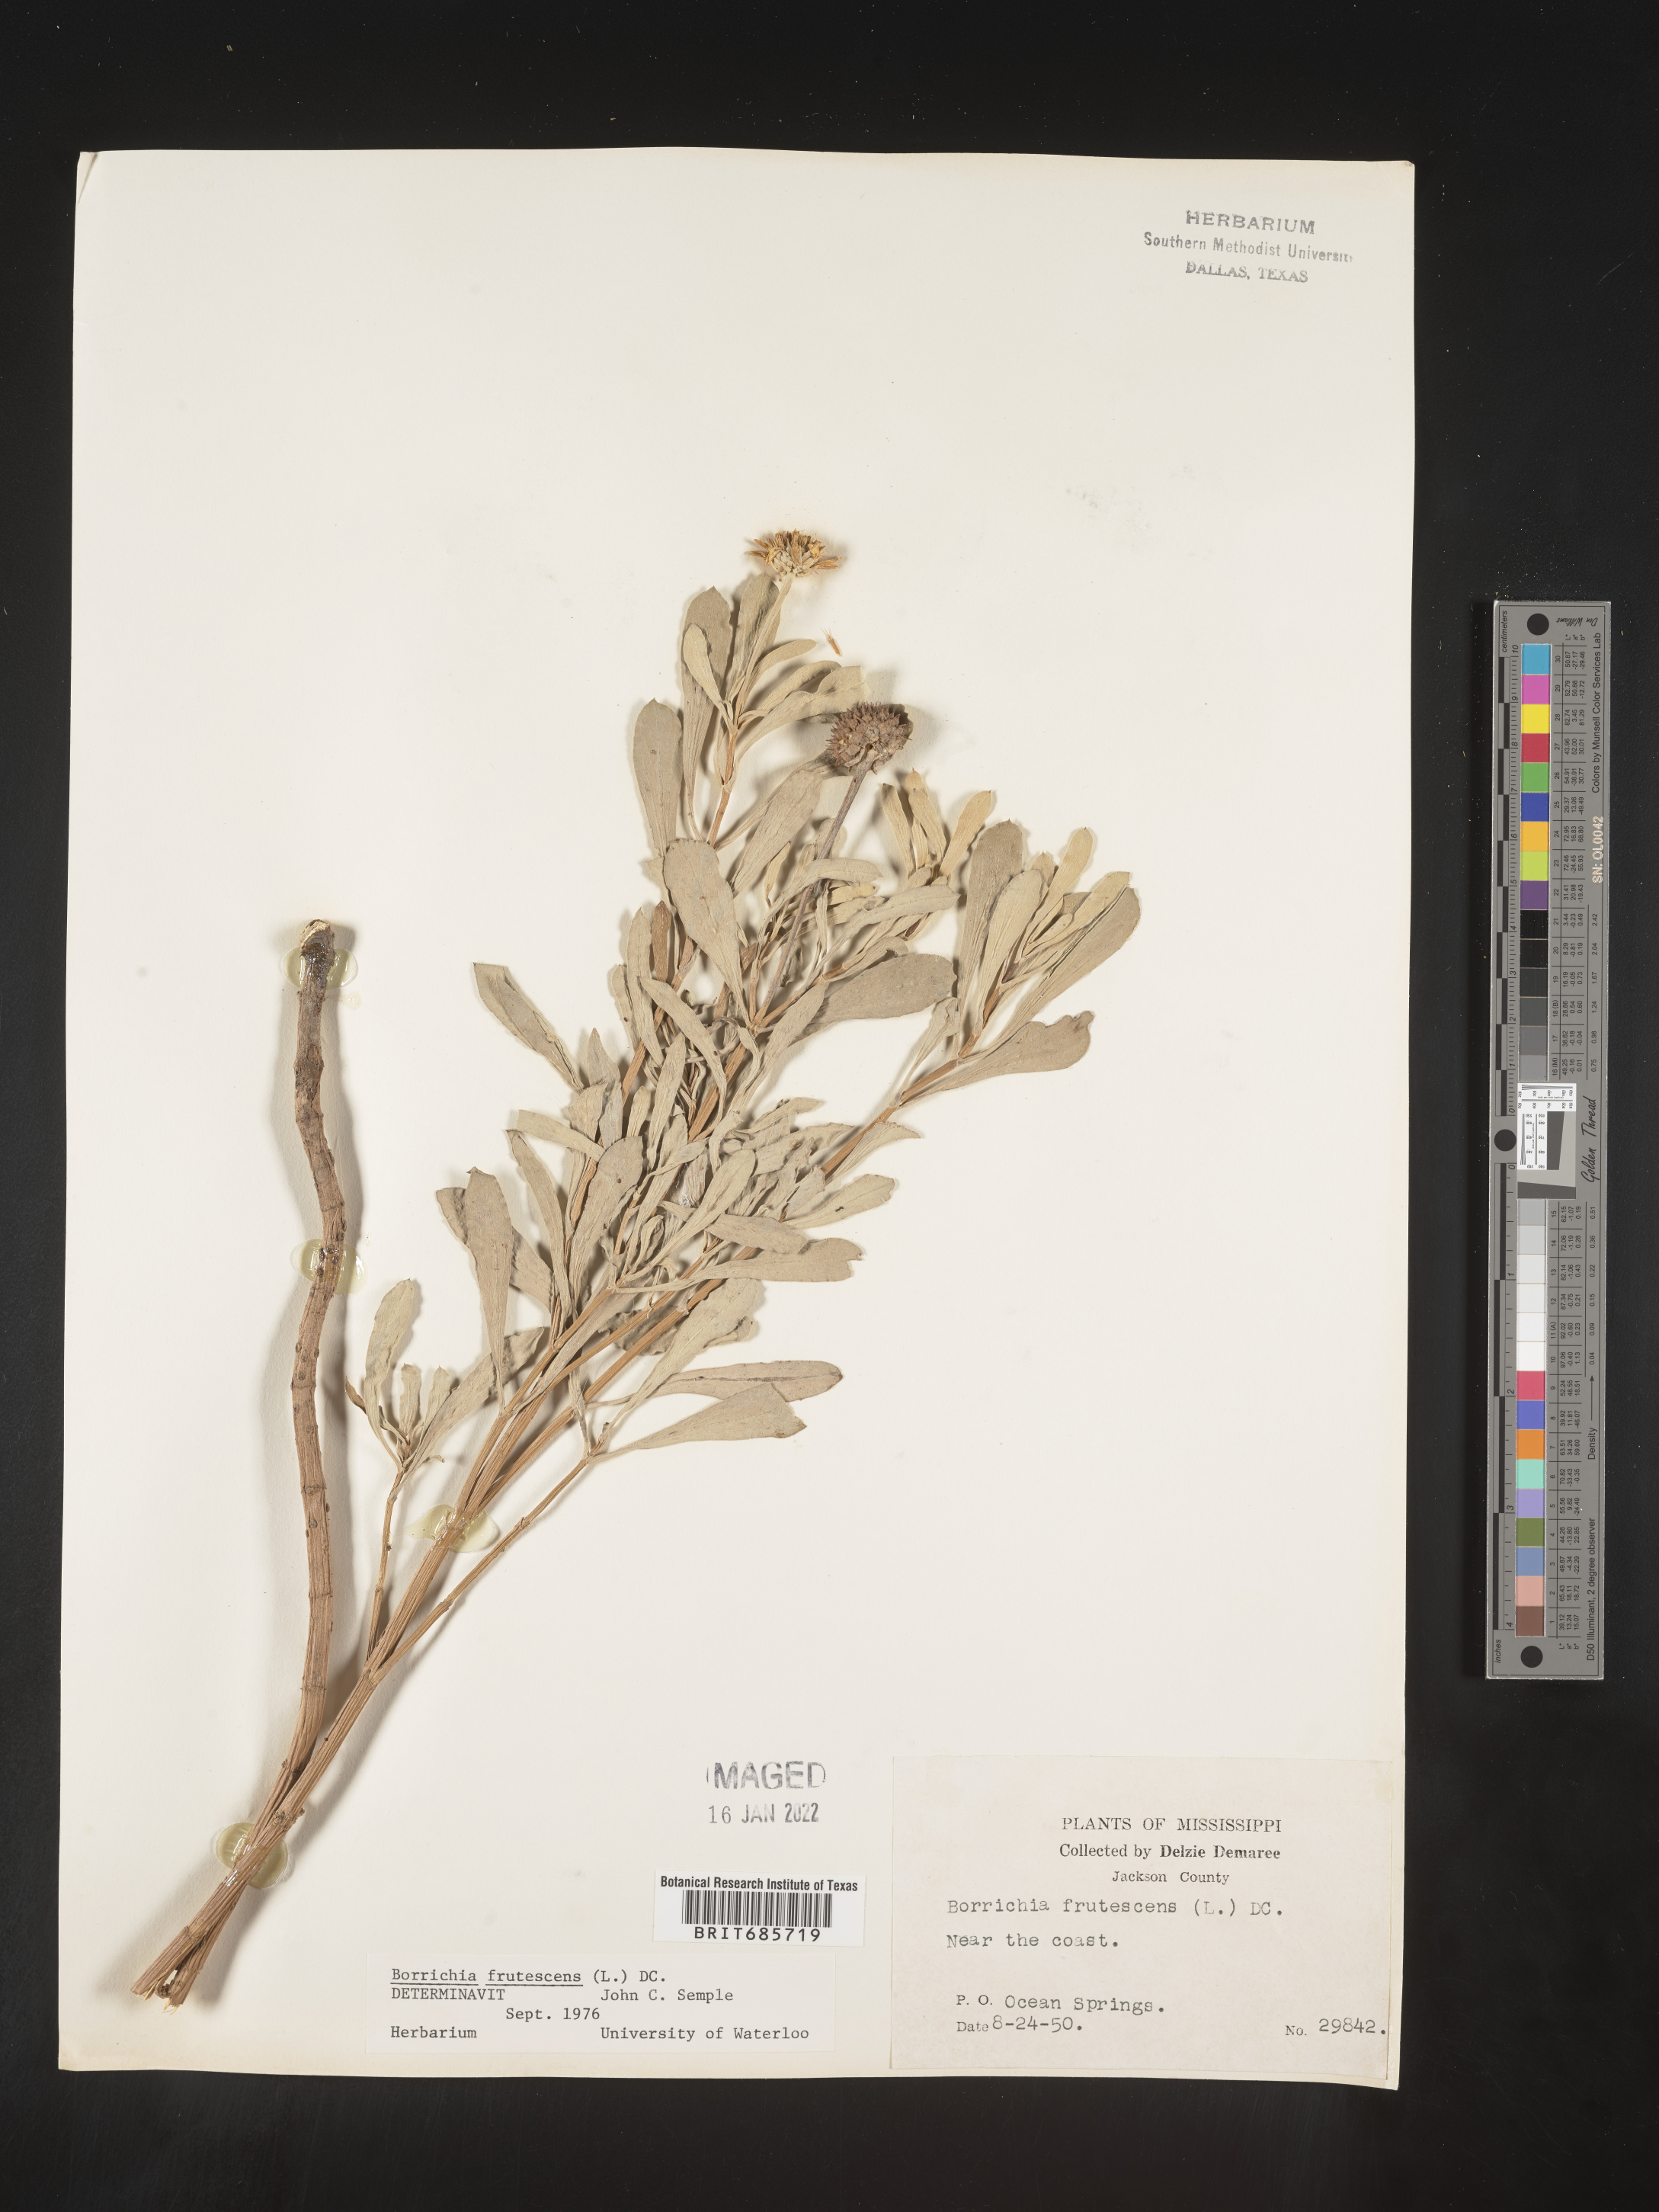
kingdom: Plantae
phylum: Tracheophyta
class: Magnoliopsida
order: Asterales
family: Asteraceae
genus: Borrichia
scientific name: Borrichia frutescens
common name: Sea oxeye
